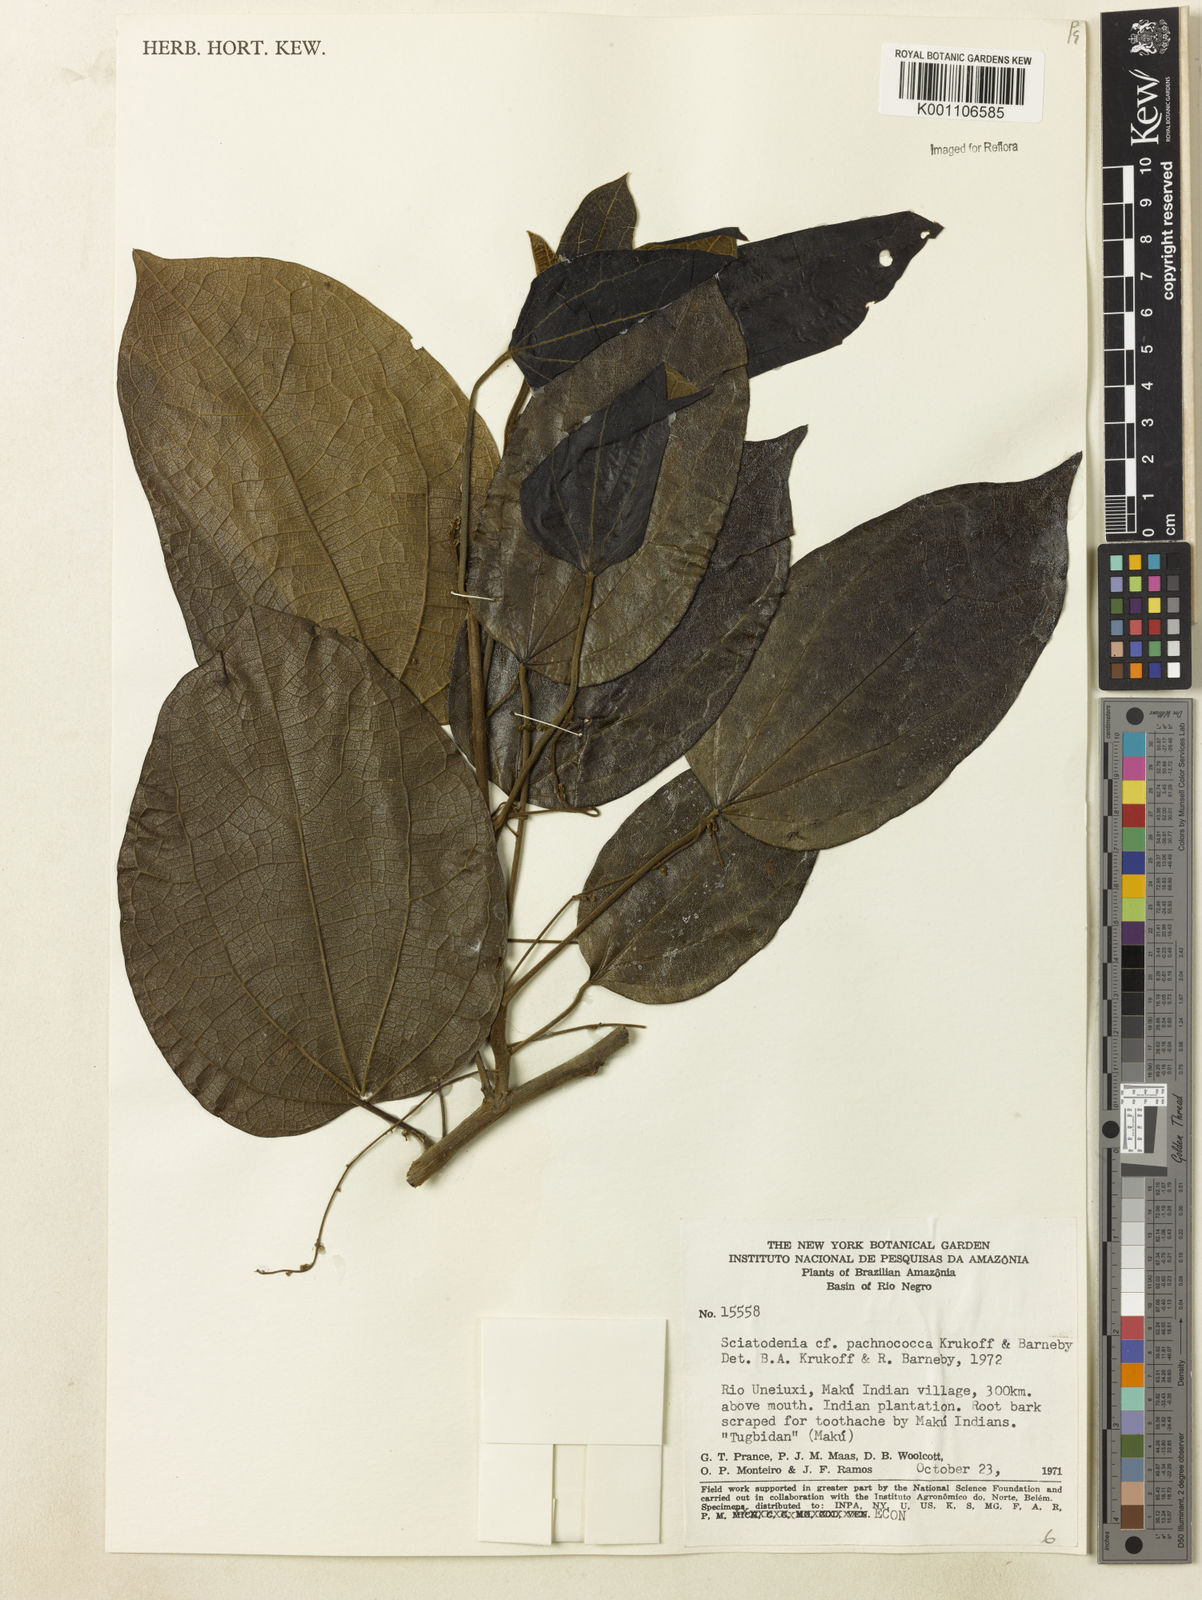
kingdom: Plantae
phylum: Tracheophyta
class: Magnoliopsida
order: Ranunculales
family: Menispermaceae
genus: Sciadotenia
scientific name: Sciadotenia pachnococca
